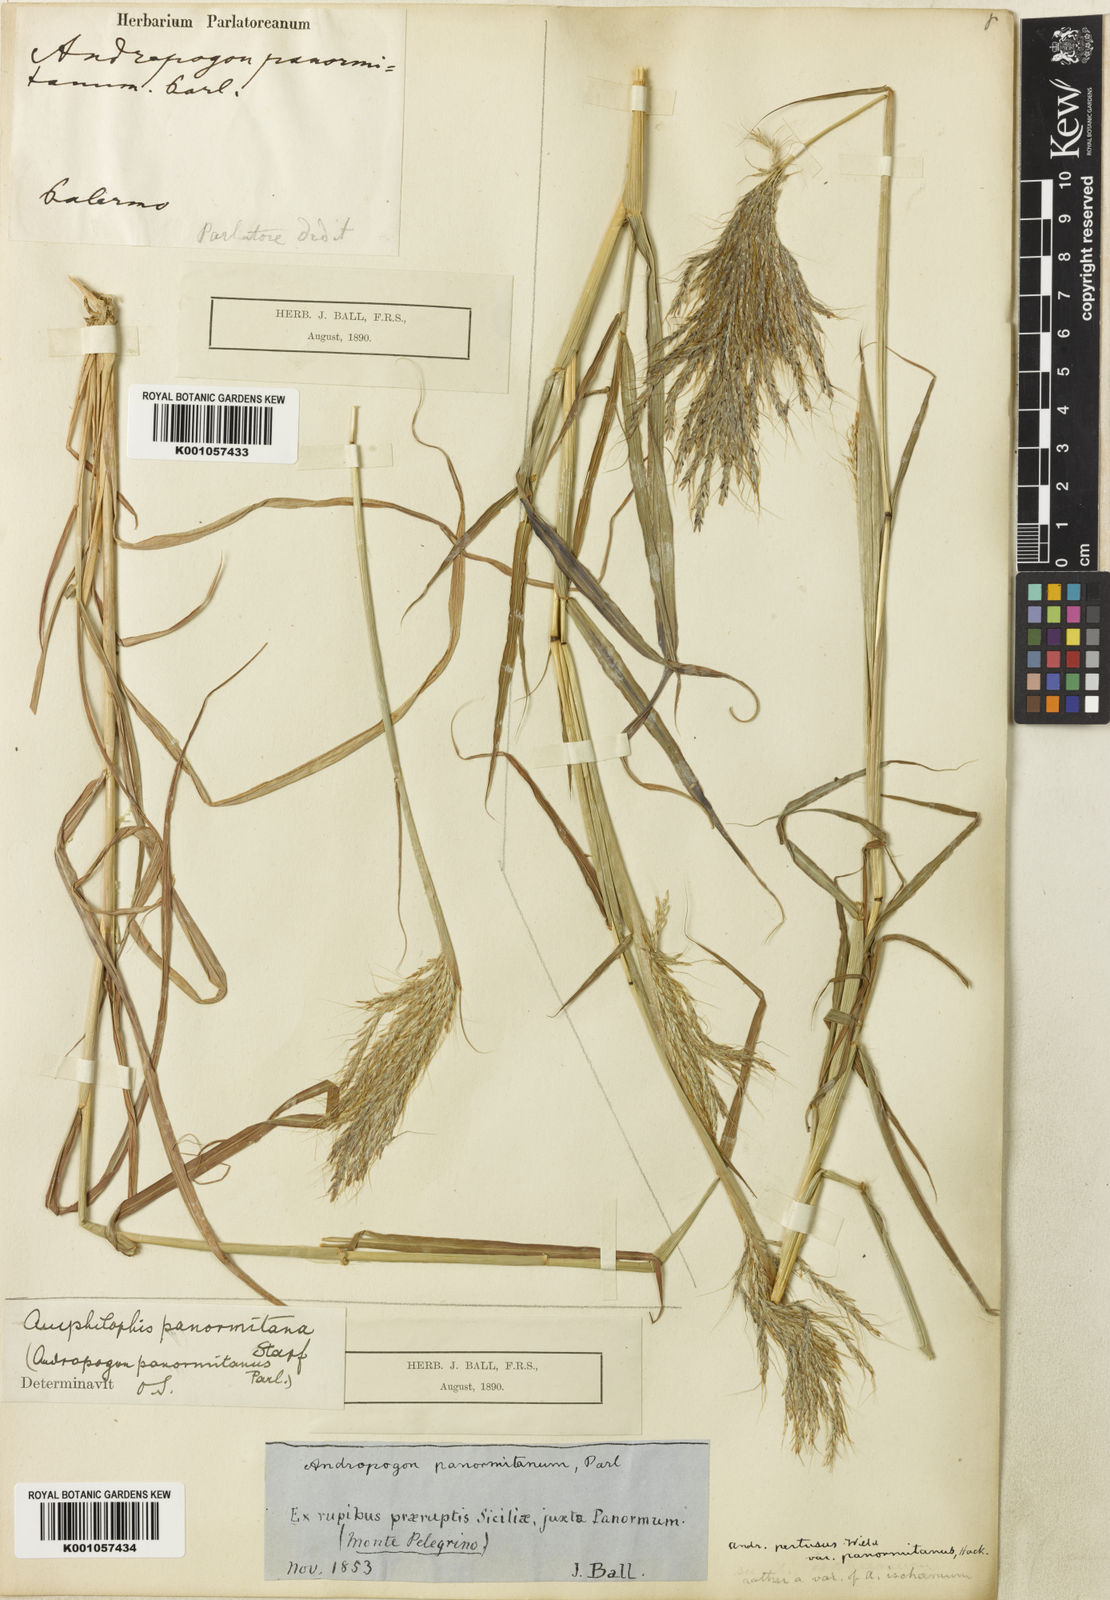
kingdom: Plantae
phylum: Tracheophyta
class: Liliopsida
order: Poales
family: Poaceae
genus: Bothriochloa
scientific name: Bothriochloa insculpta
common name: Creeping-bluegrass
